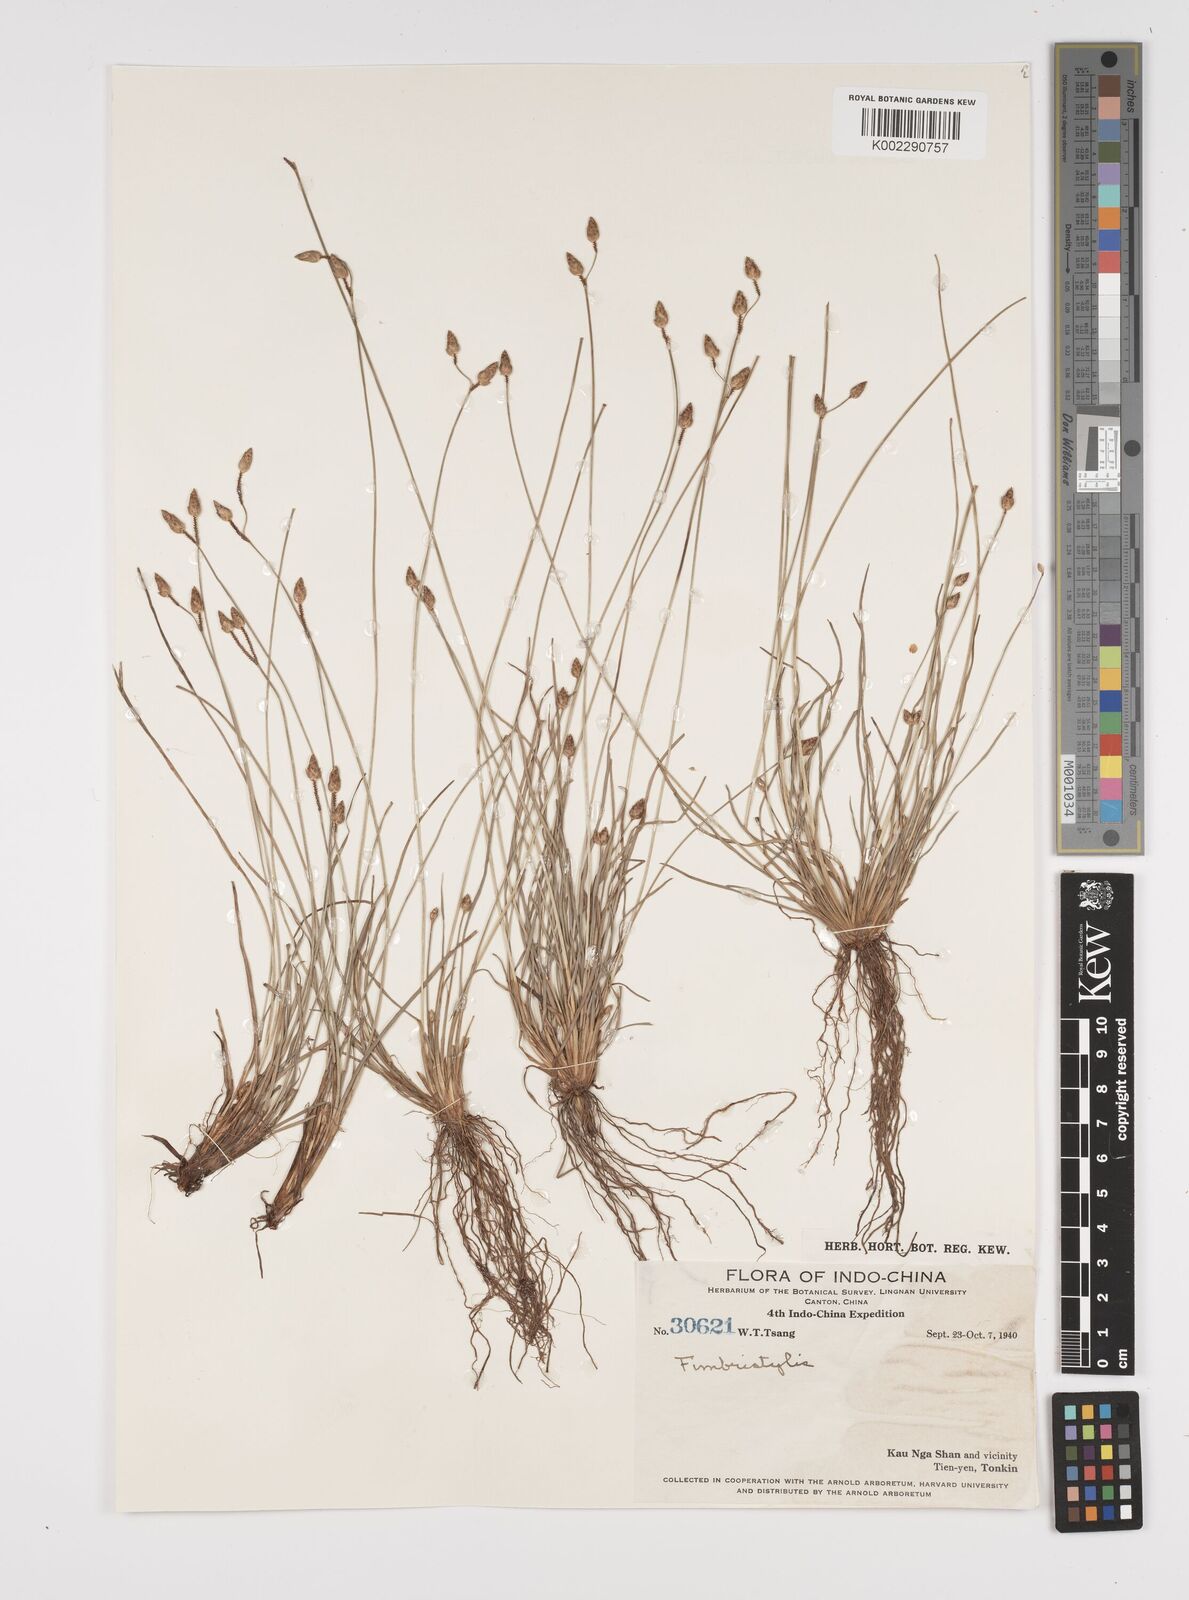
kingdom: Plantae
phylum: Tracheophyta
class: Liliopsida
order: Poales
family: Cyperaceae
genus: Fimbristylis
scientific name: Fimbristylis
